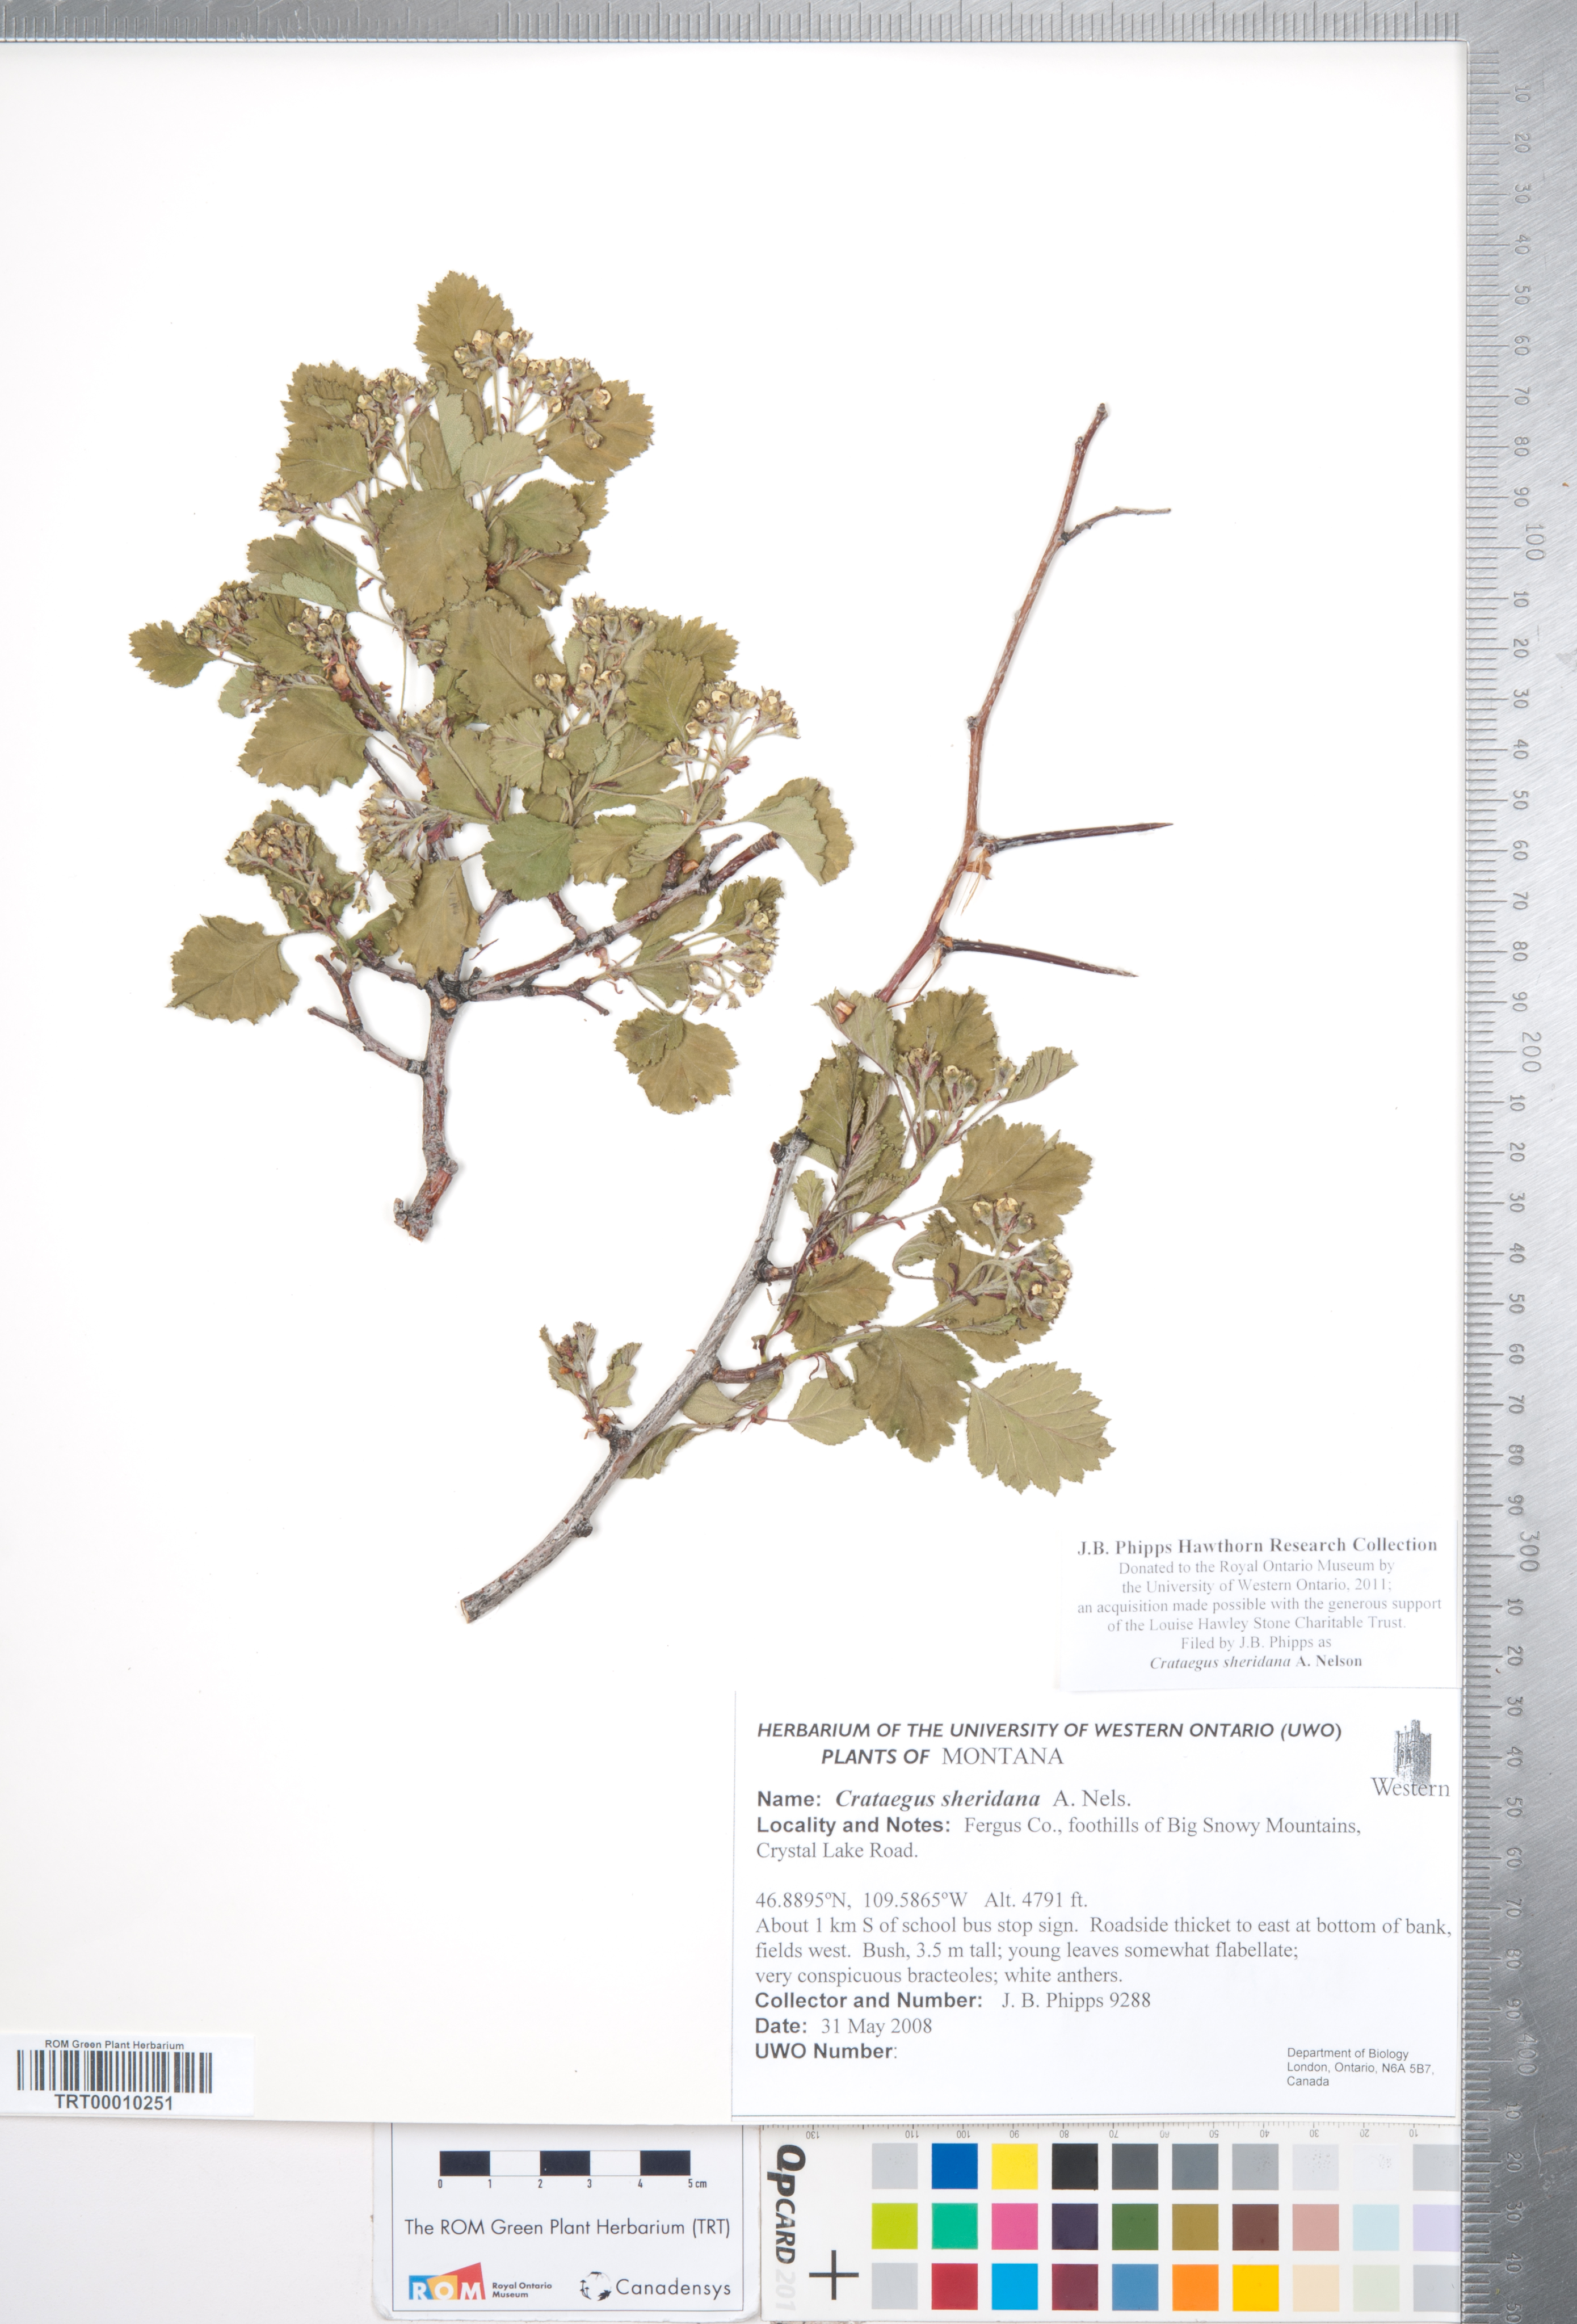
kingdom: Plantae
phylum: Tracheophyta
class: Magnoliopsida
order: Rosales
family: Rosaceae
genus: Crataegus
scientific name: Crataegus chrysocarpa
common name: Fire-berry hawthorn
